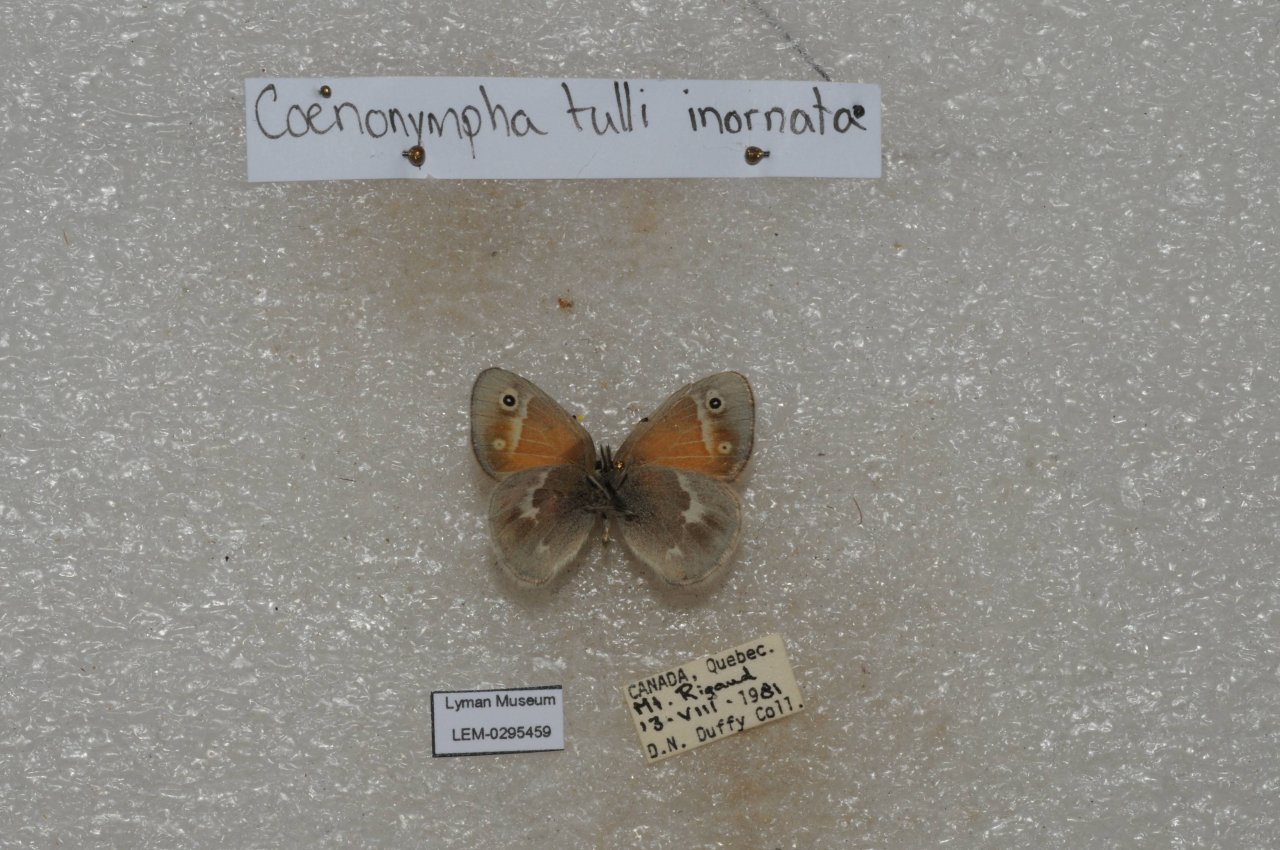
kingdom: Animalia
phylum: Arthropoda
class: Insecta
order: Lepidoptera
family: Nymphalidae
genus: Coenonympha
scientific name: Coenonympha tullia
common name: Large Heath
